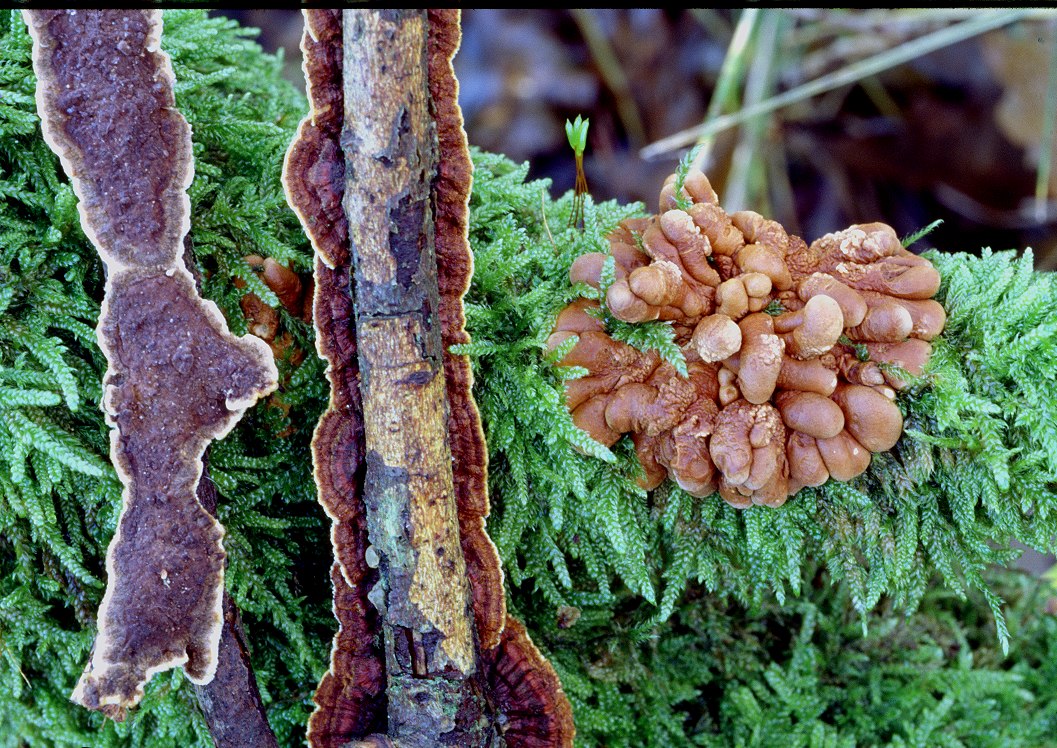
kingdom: Fungi
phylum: Ascomycota
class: Sordariomycetes
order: Hypocreales
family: Hypocreaceae
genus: Hypocreopsis
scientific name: Hypocreopsis lichenoides
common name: pilfinger
